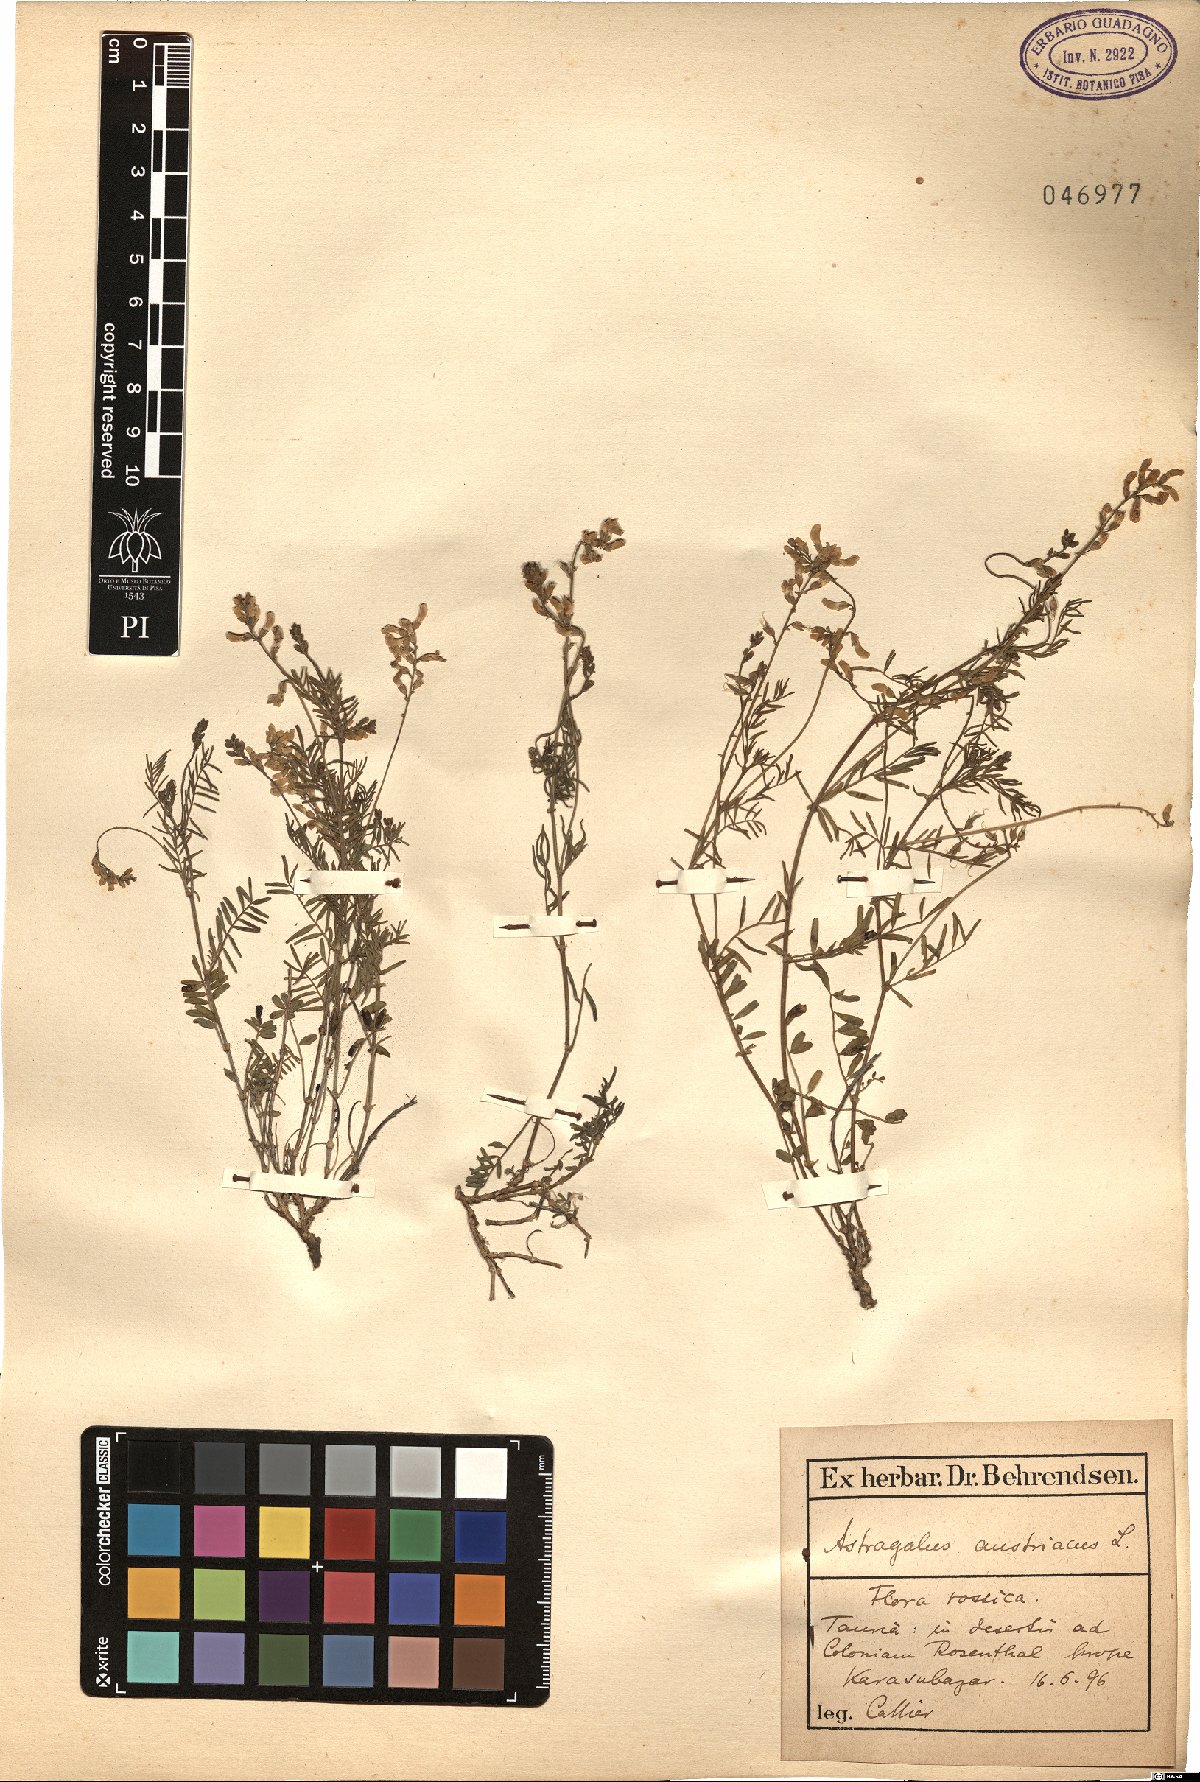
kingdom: Plantae
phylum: Tracheophyta
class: Magnoliopsida
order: Fabales
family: Fabaceae
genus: Astragalus
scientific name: Astragalus austriacus
